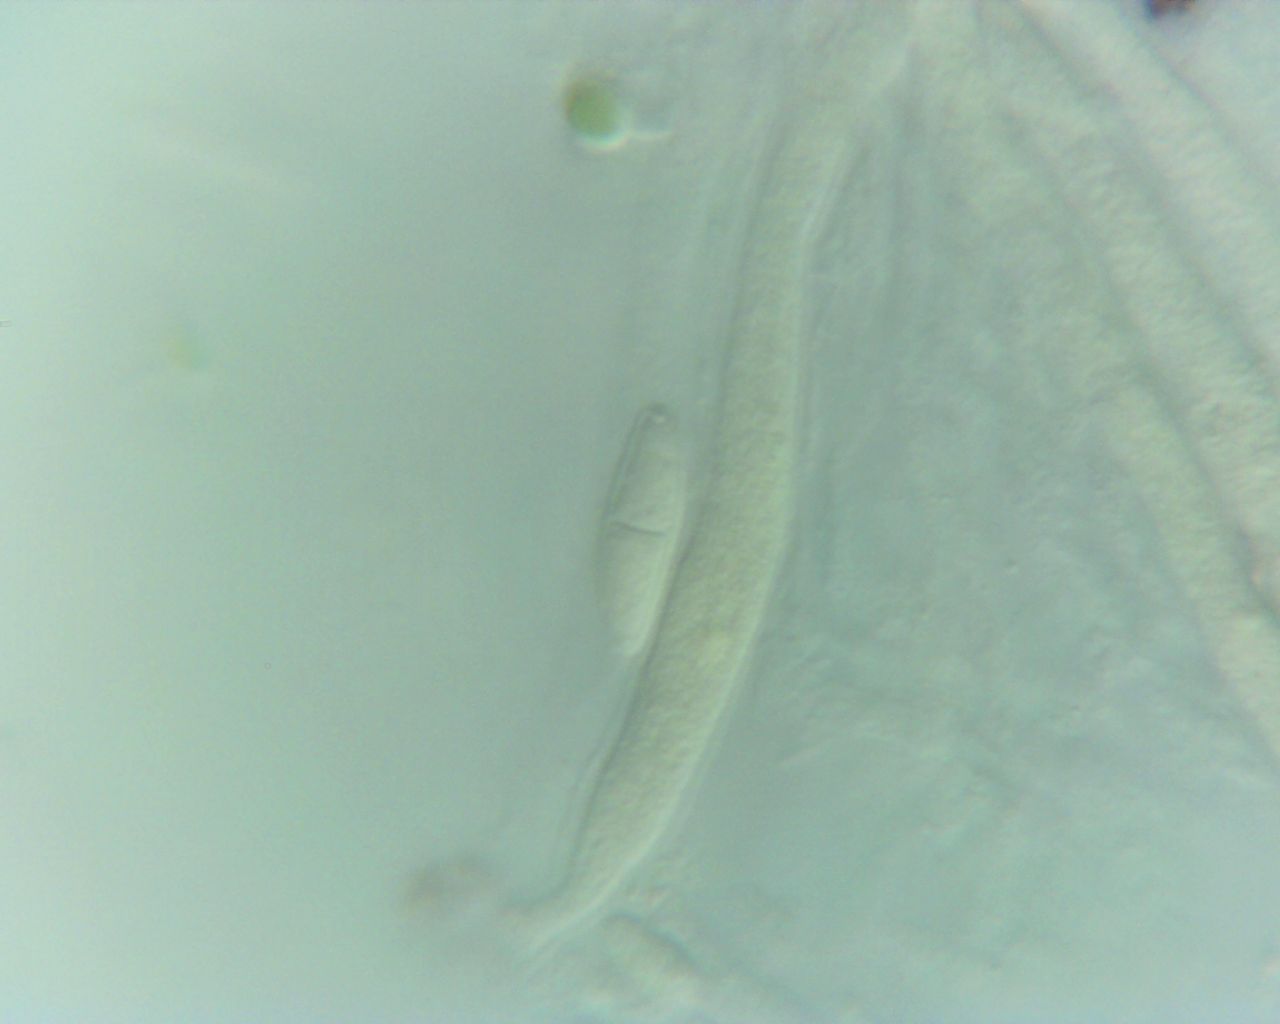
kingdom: Fungi
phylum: Ascomycota
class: Sordariomycetes
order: Hypocreales
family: Nectriaceae
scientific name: Nectriaceae
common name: cinnobersvampfamilien
